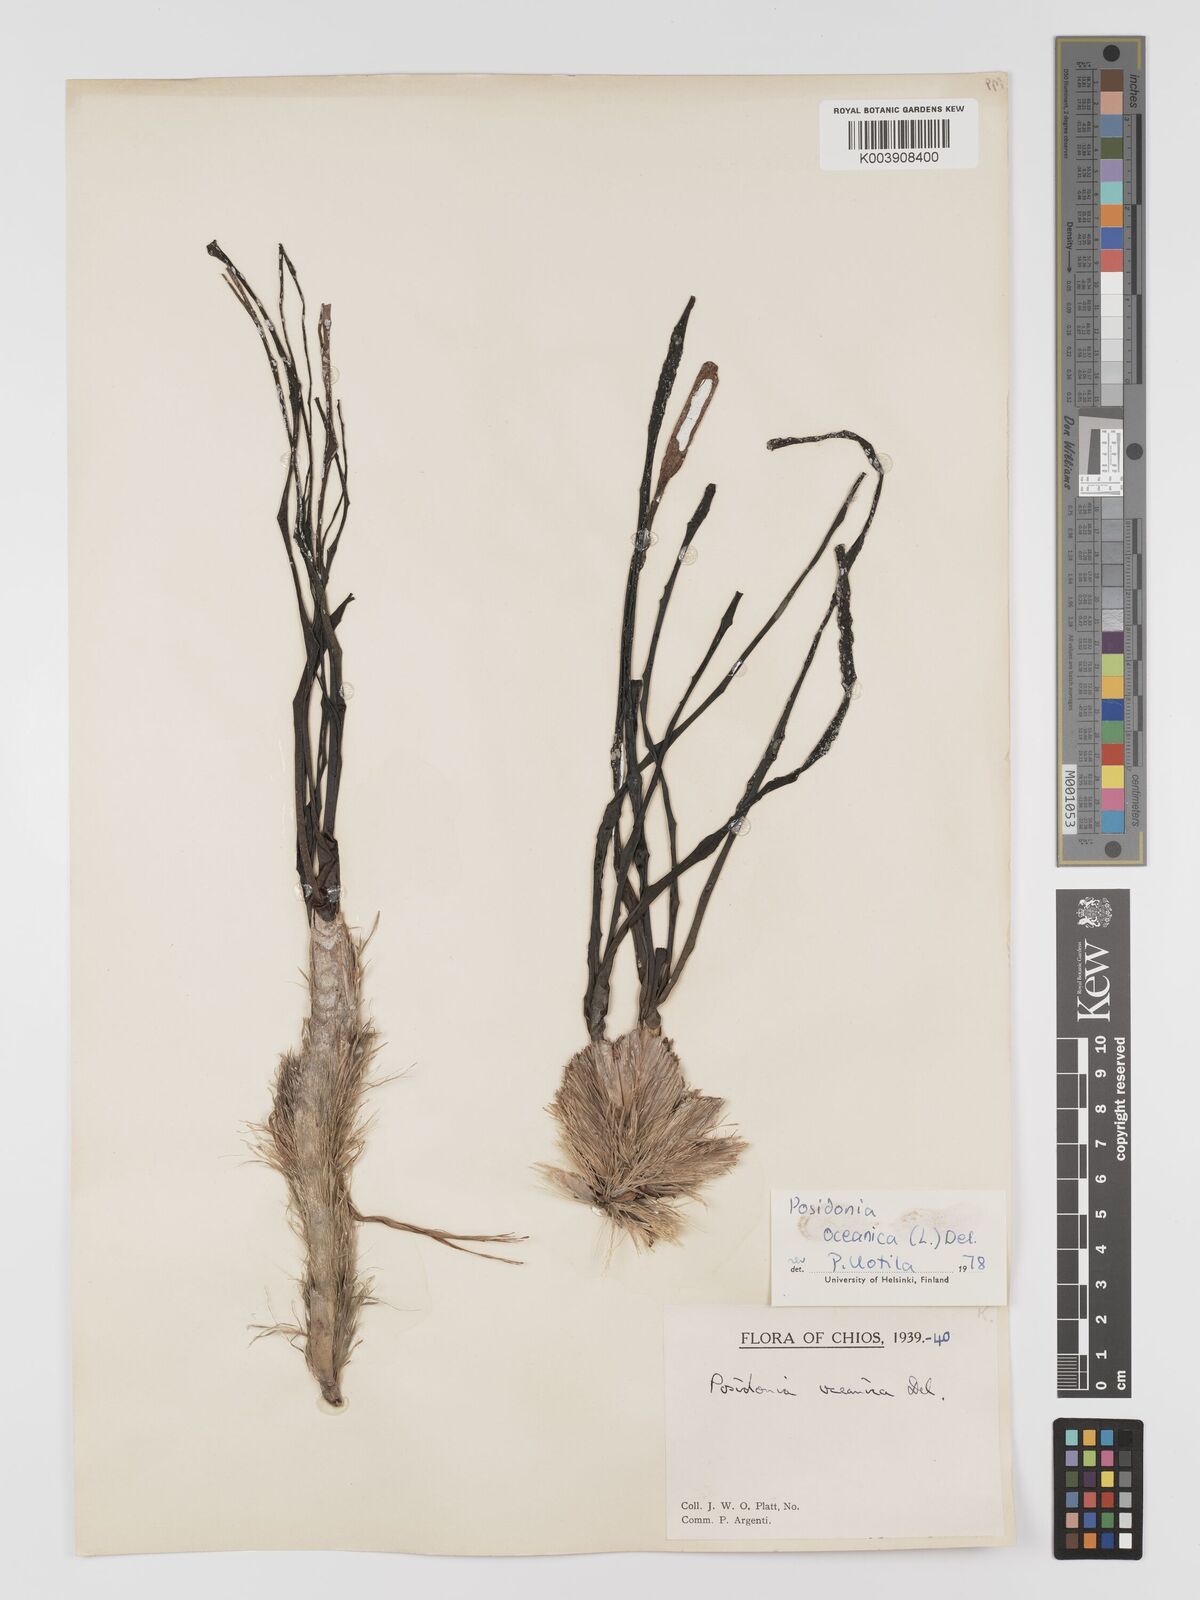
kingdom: Plantae
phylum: Tracheophyta
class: Liliopsida
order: Alismatales
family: Posidoniaceae
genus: Posidonia
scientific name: Posidonia oceanica
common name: Mediterranean tapeweed
